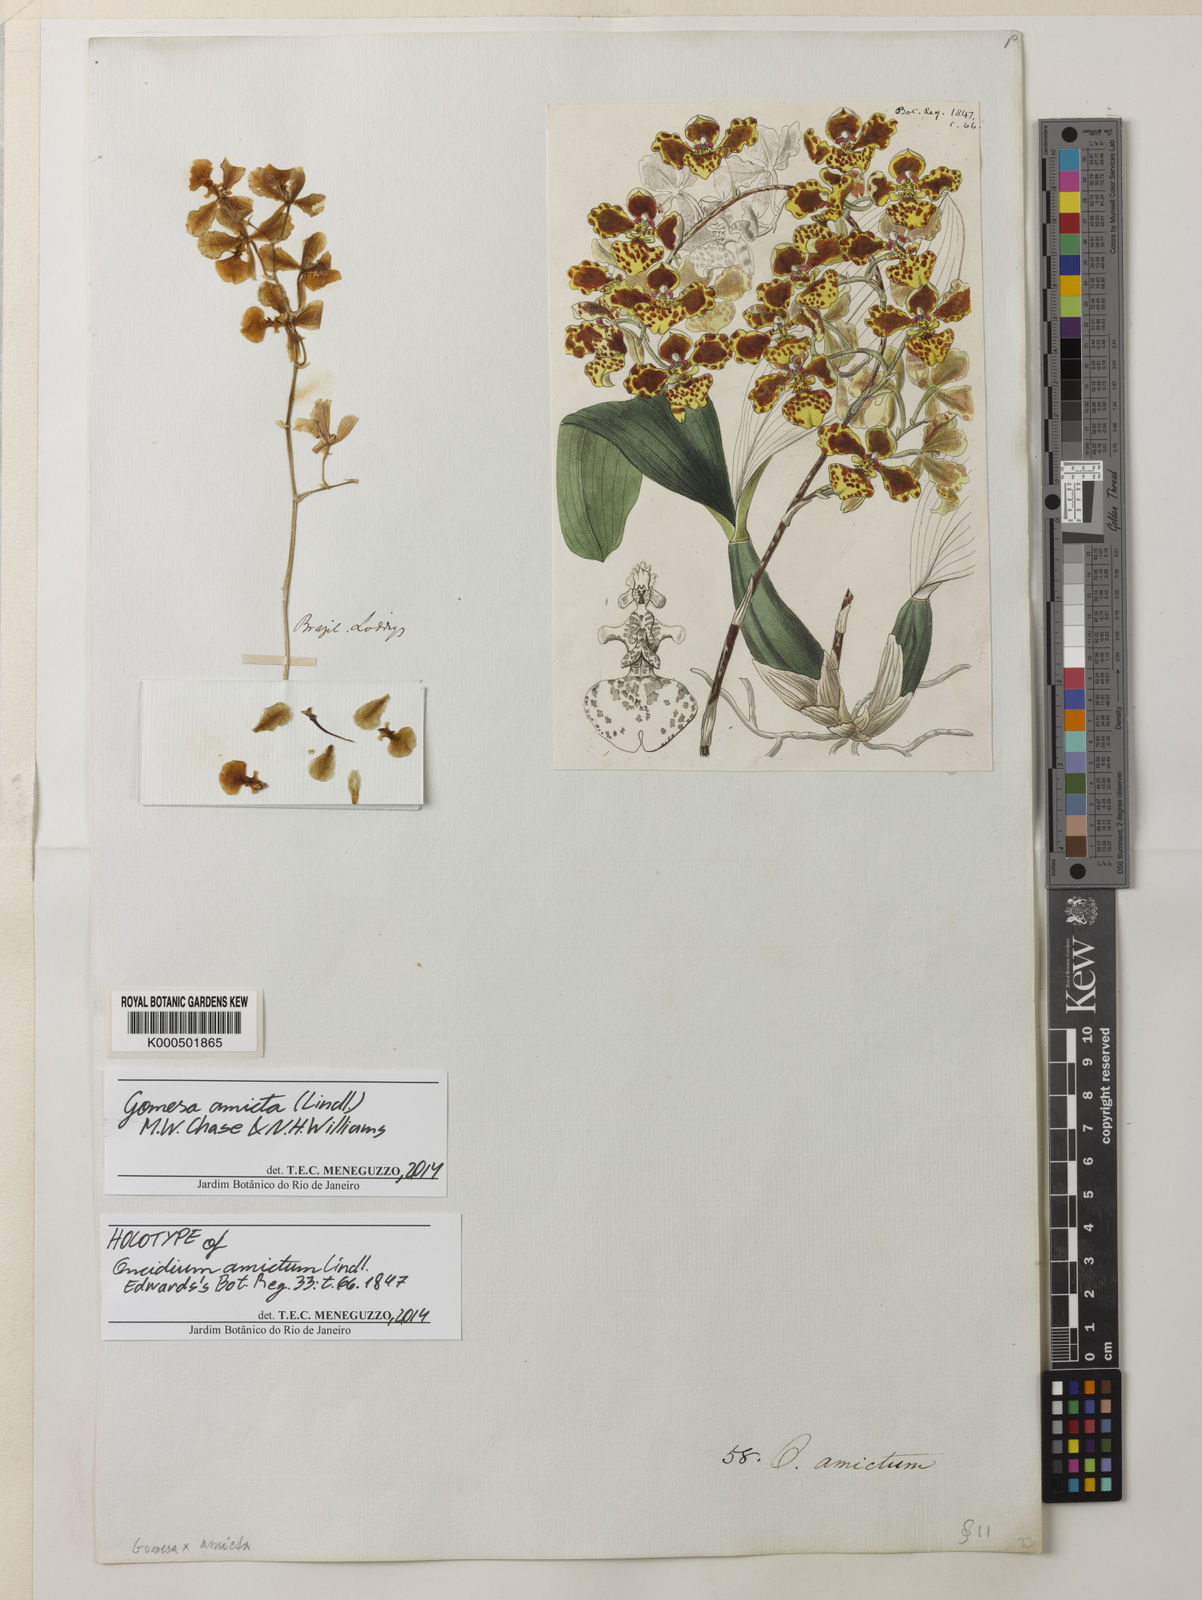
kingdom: Plantae
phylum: Tracheophyta
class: Liliopsida
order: Asparagales
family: Orchidaceae
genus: Gomesa
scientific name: Gomesa amicta
